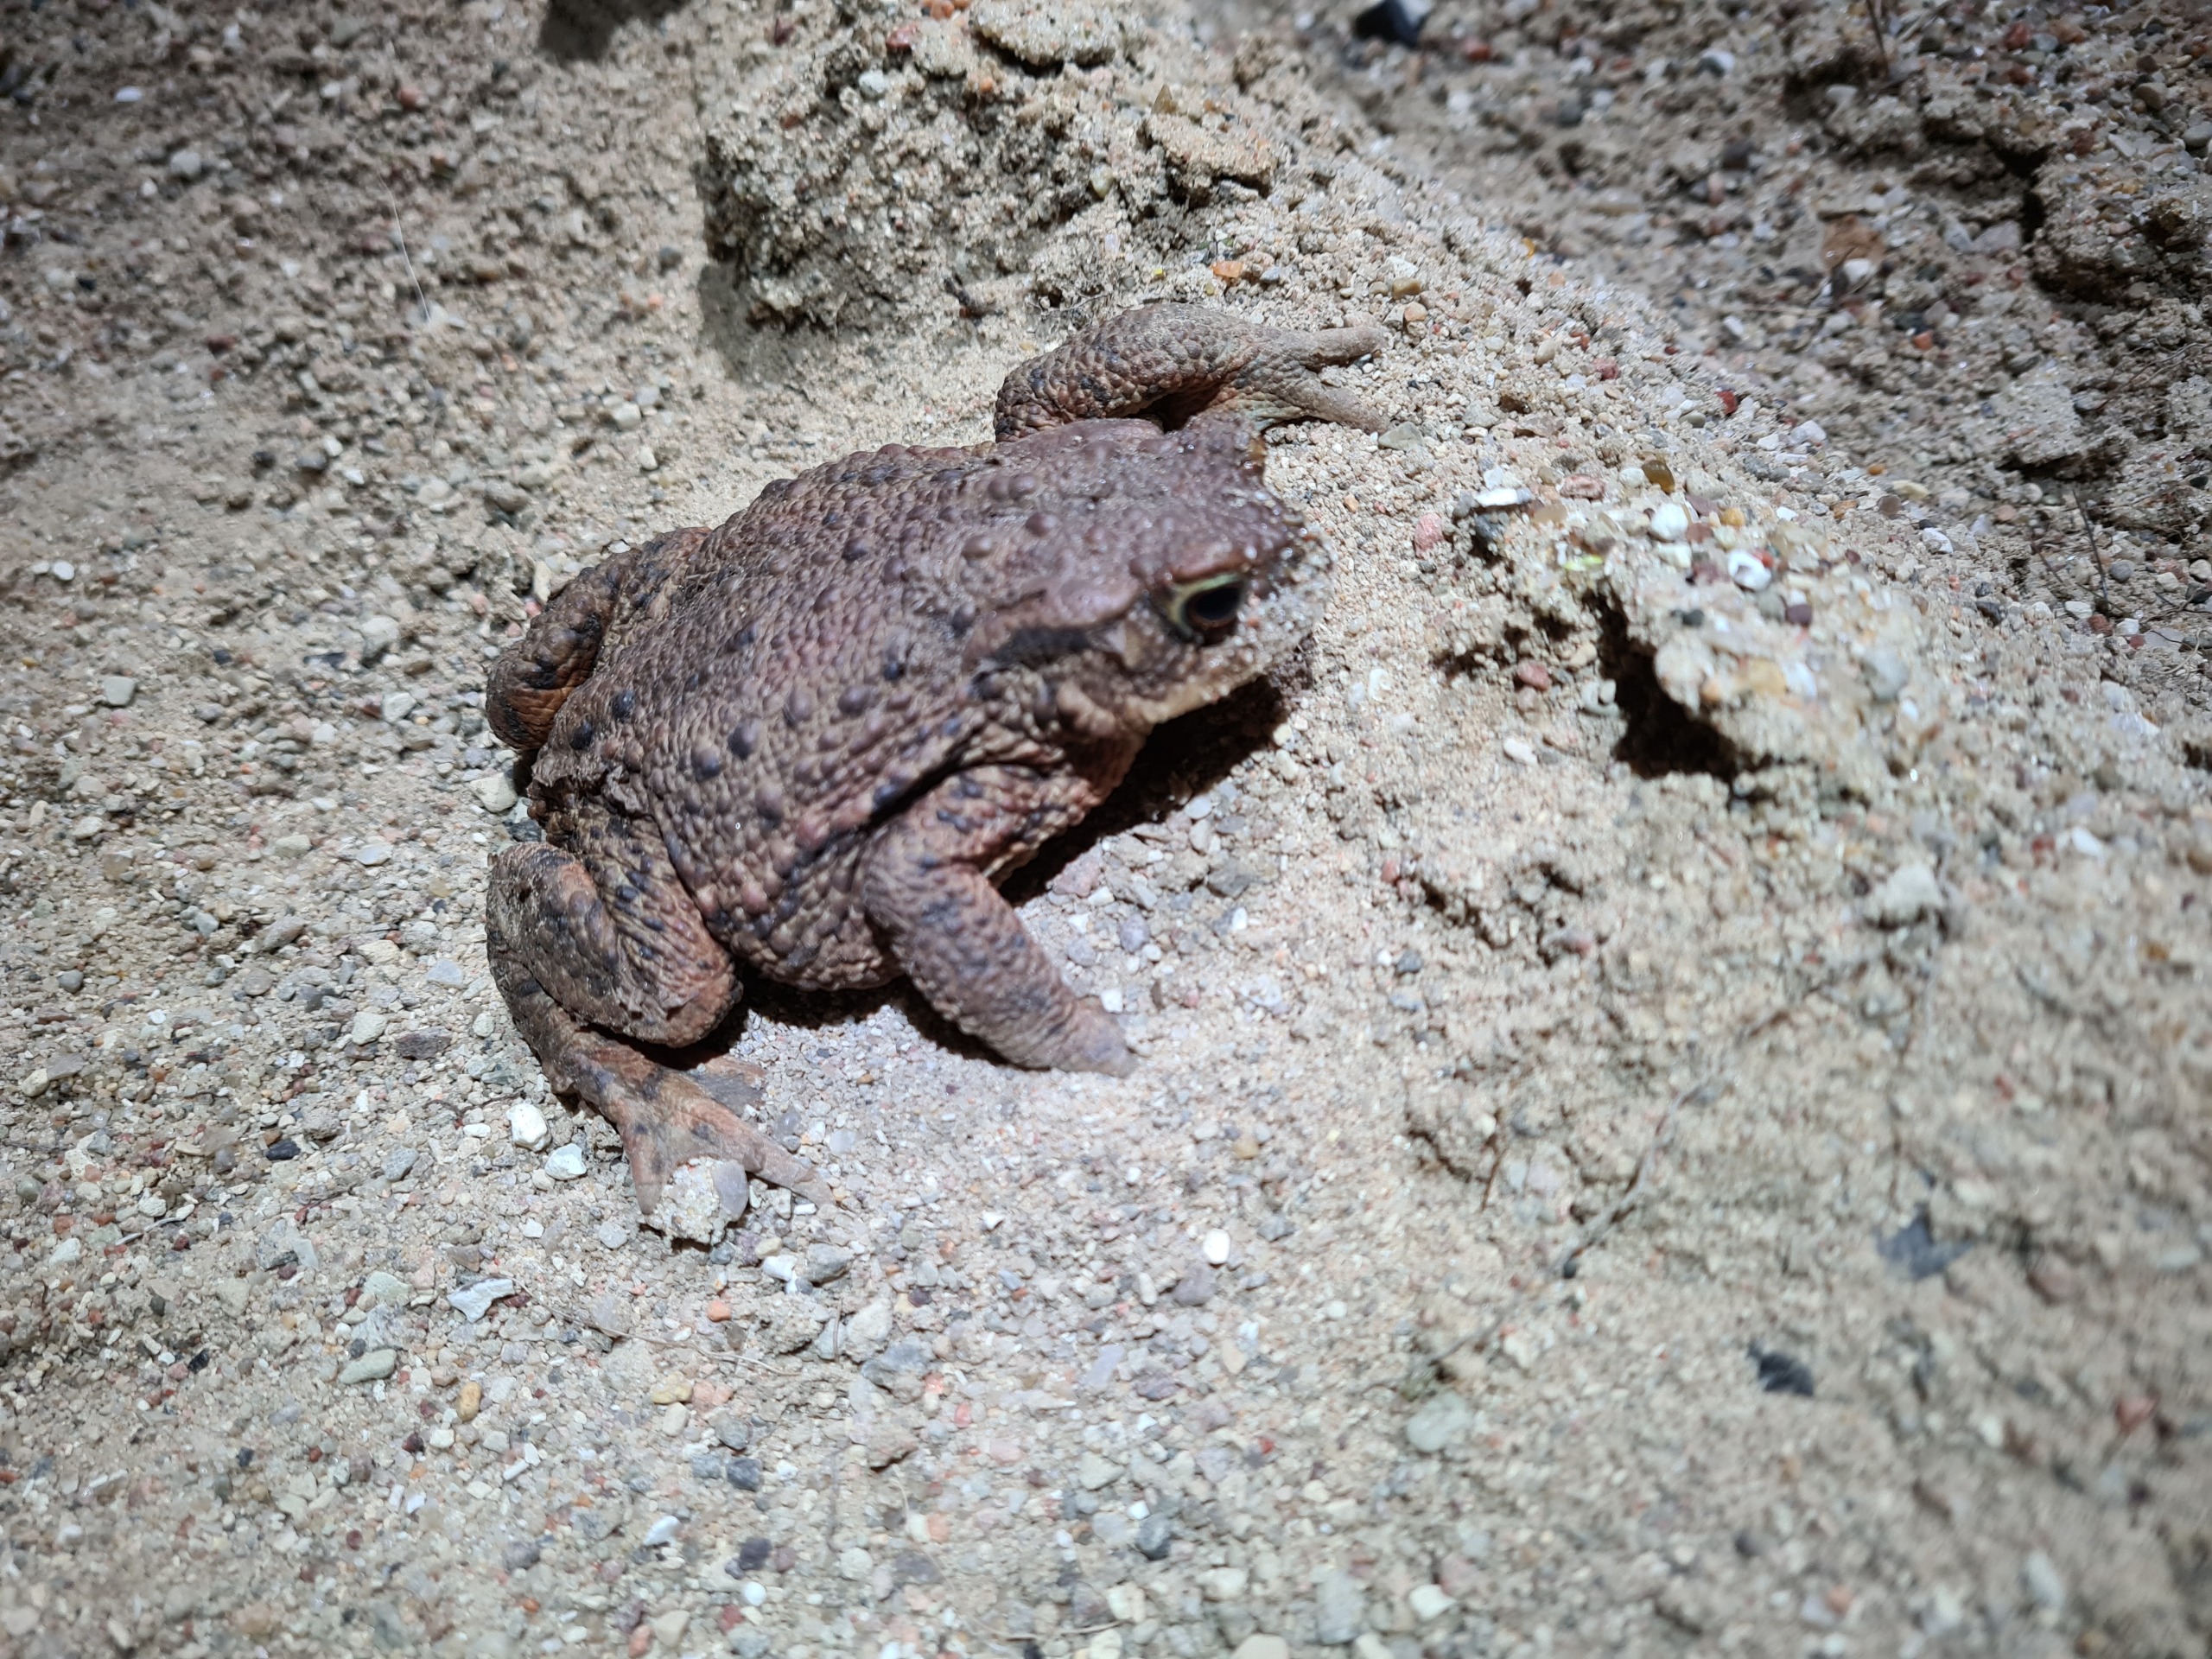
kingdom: Animalia
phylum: Chordata
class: Amphibia
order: Anura
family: Bufonidae
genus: Bufo
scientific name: Bufo bufo
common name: Skrubtudse
